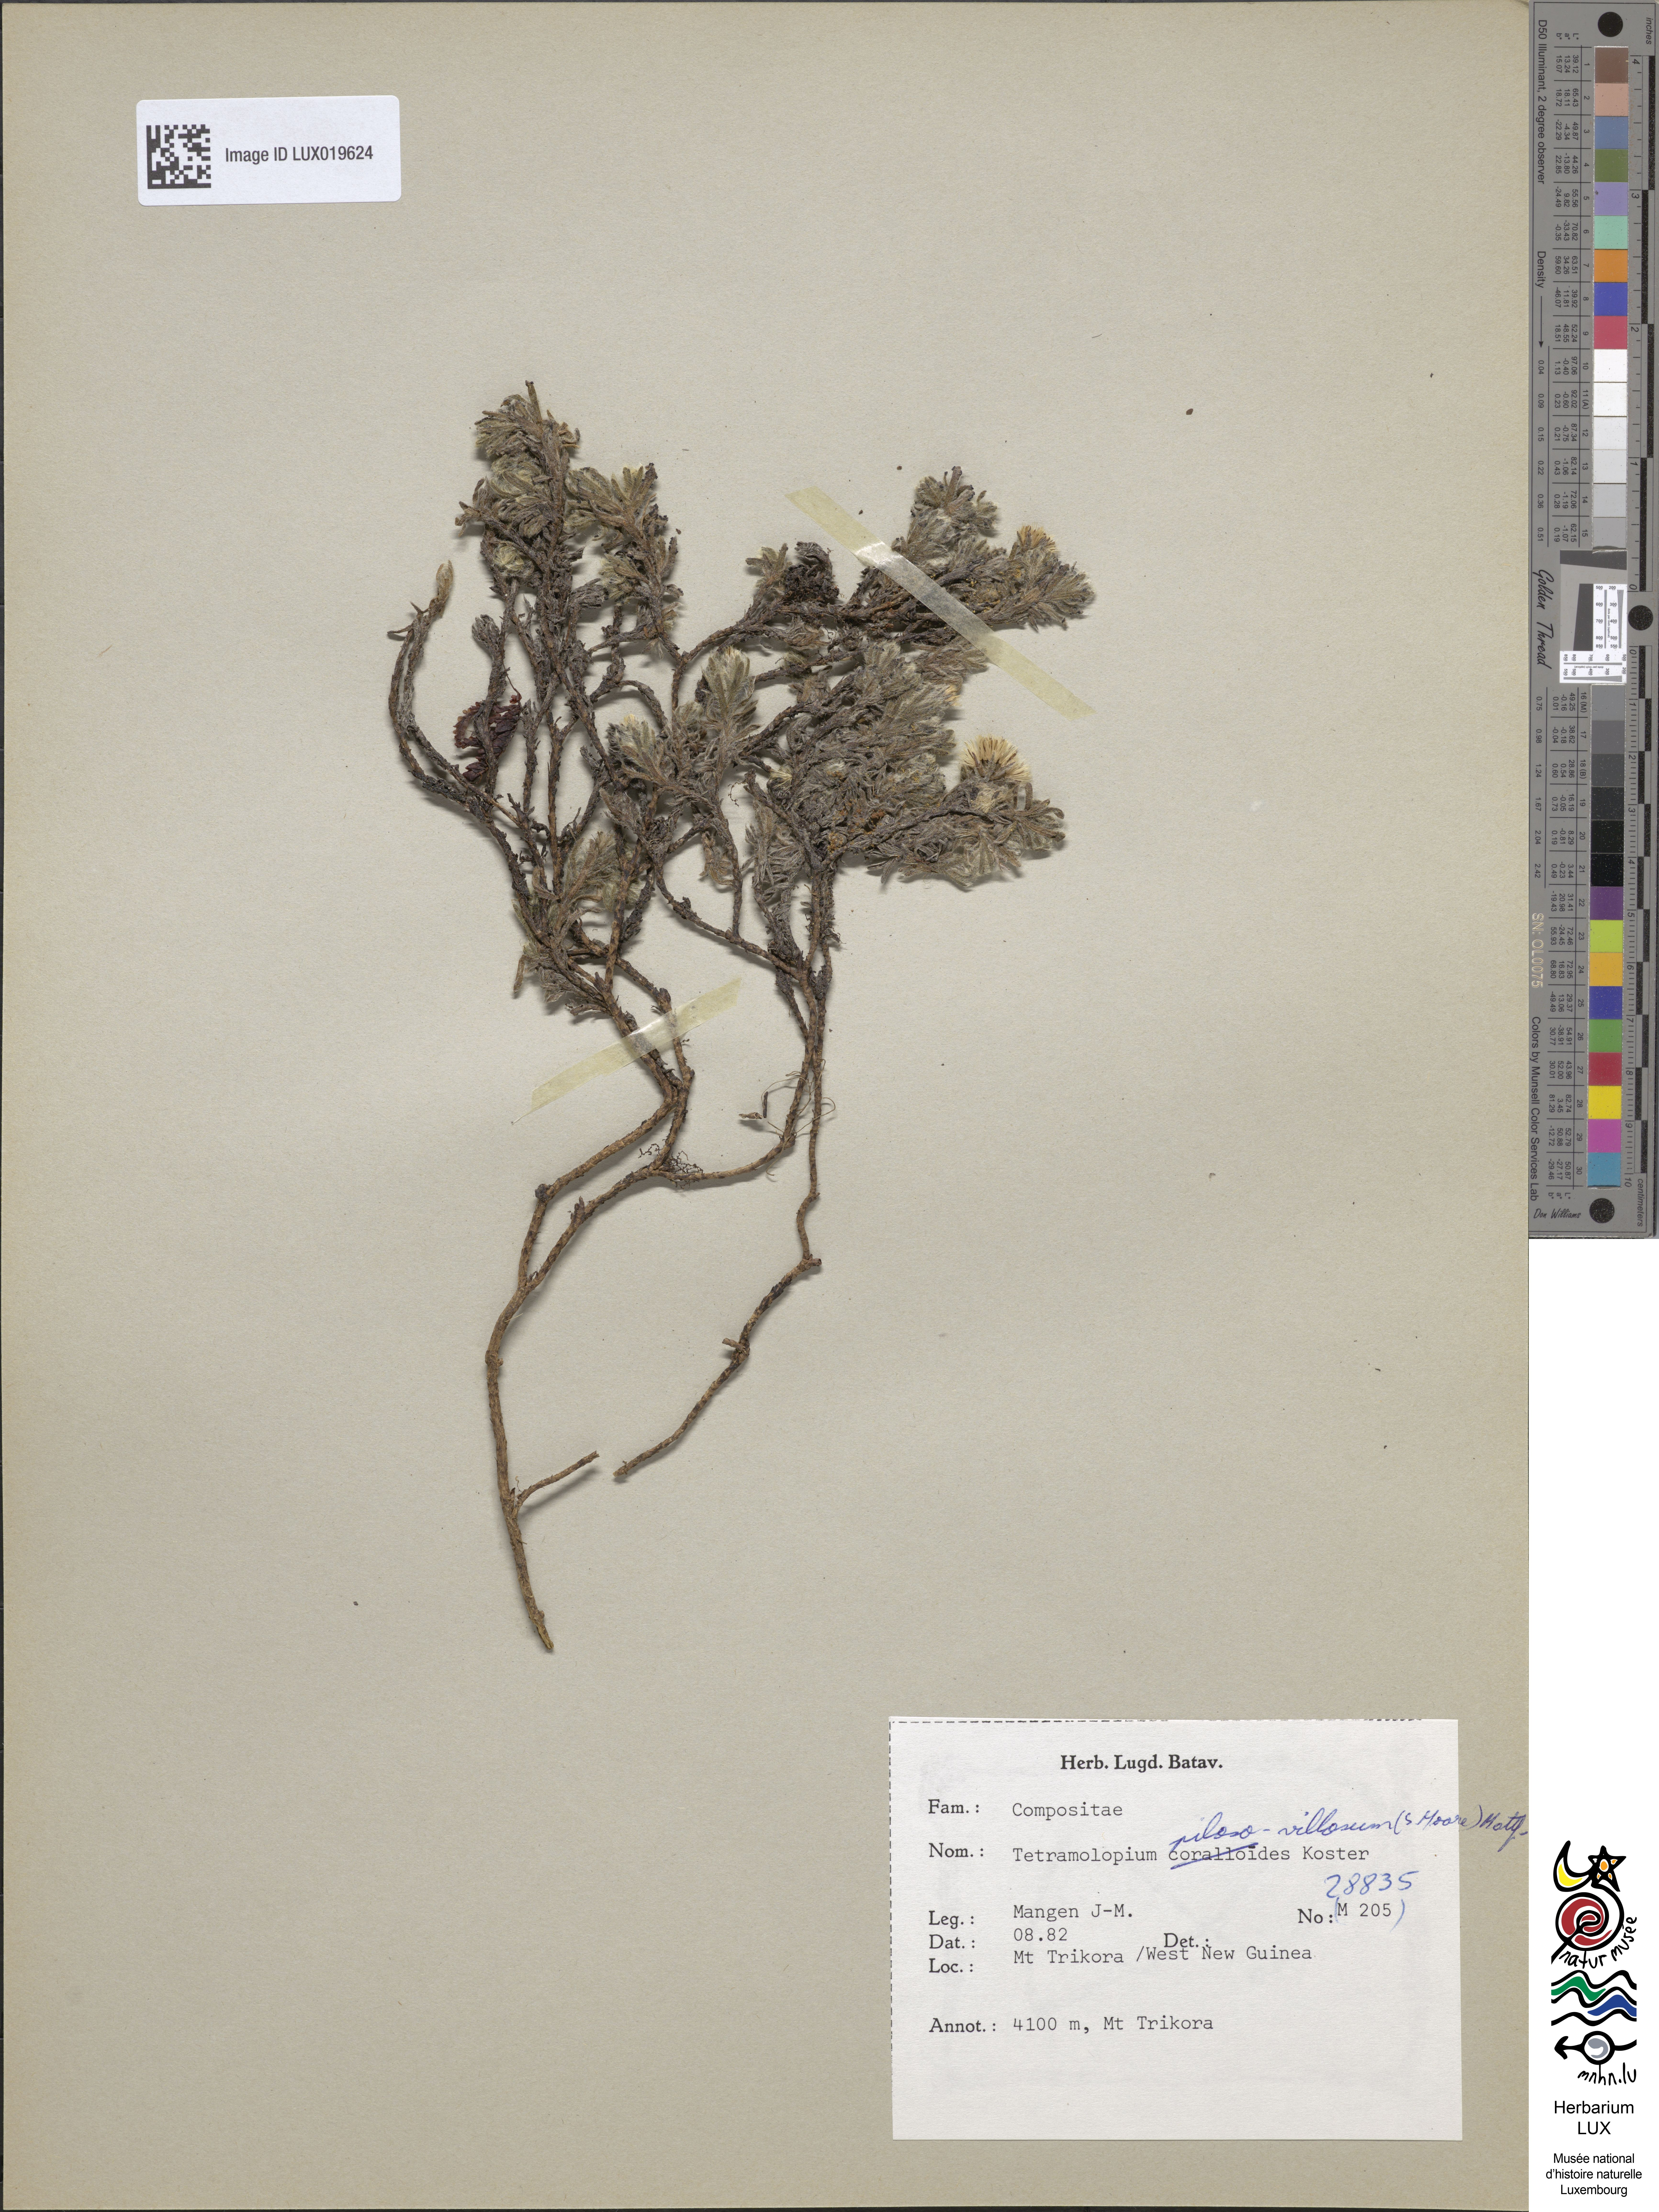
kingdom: Plantae
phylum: Tracheophyta
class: Magnoliopsida
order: Asterales
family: Asteraceae
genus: Tetramolopium
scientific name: Tetramolopium piloso-villosum
